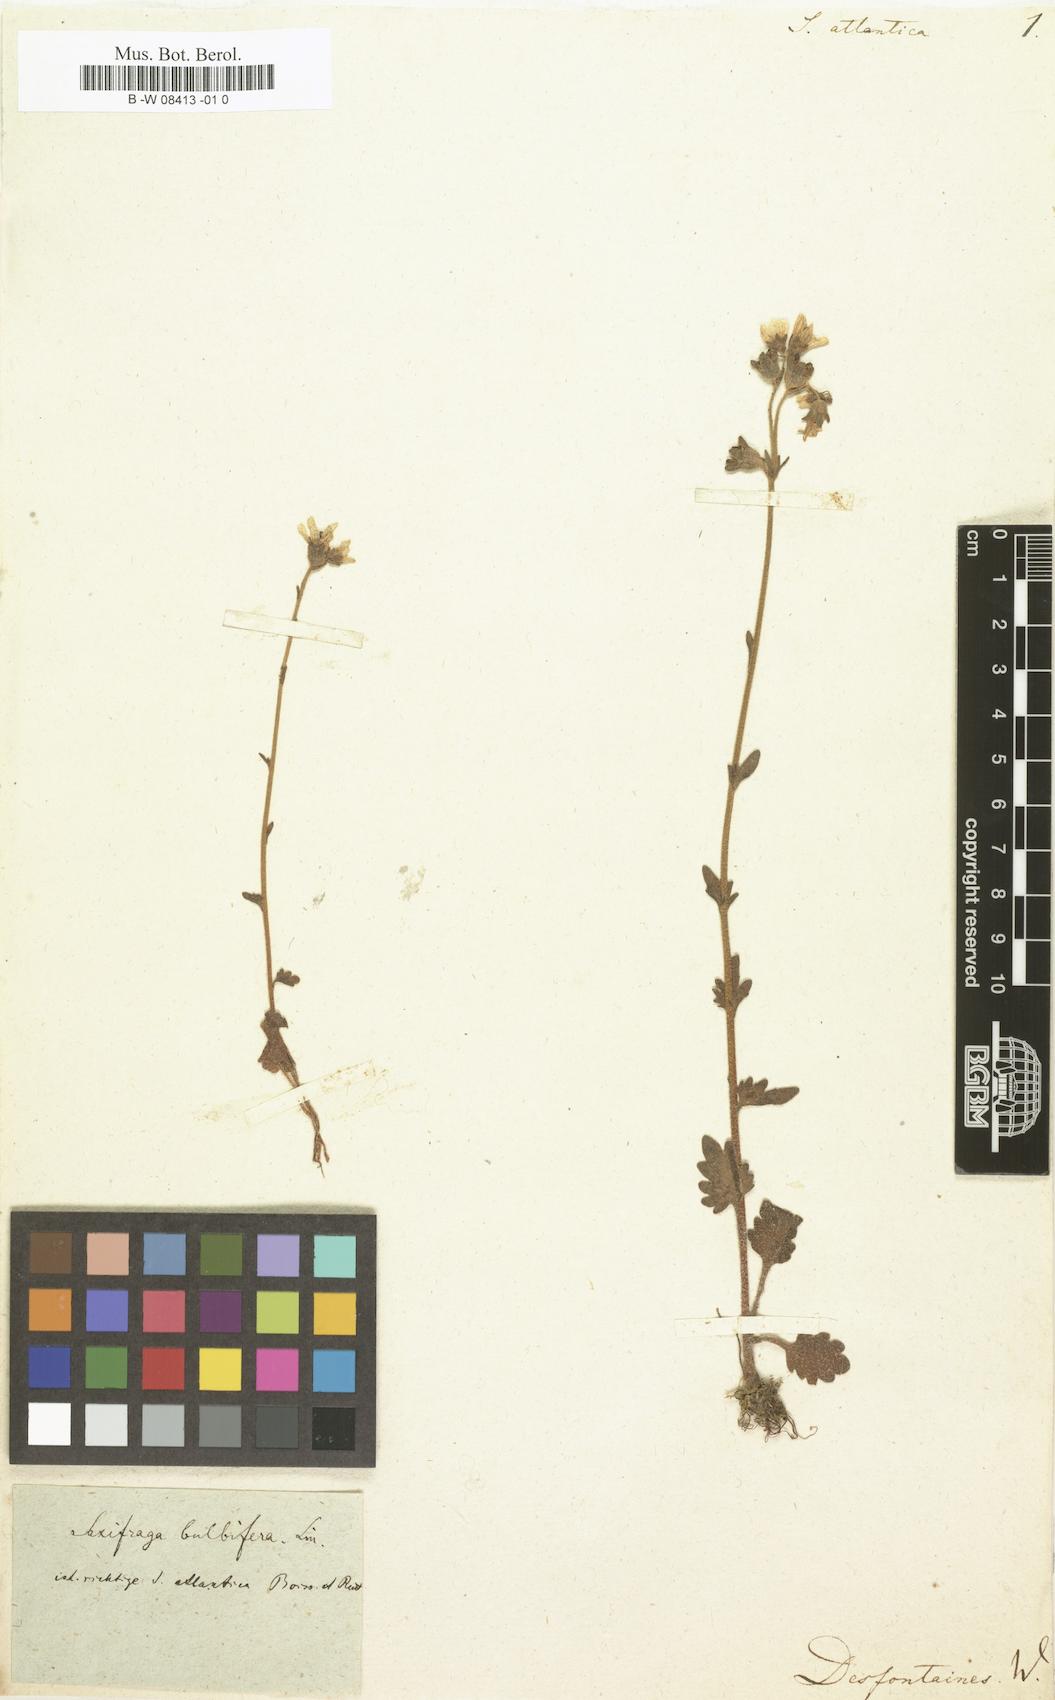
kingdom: Plantae
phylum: Tracheophyta
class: Magnoliopsida
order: Saxifragales
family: Saxifragaceae
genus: Saxifraga
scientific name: Saxifraga carpetana
